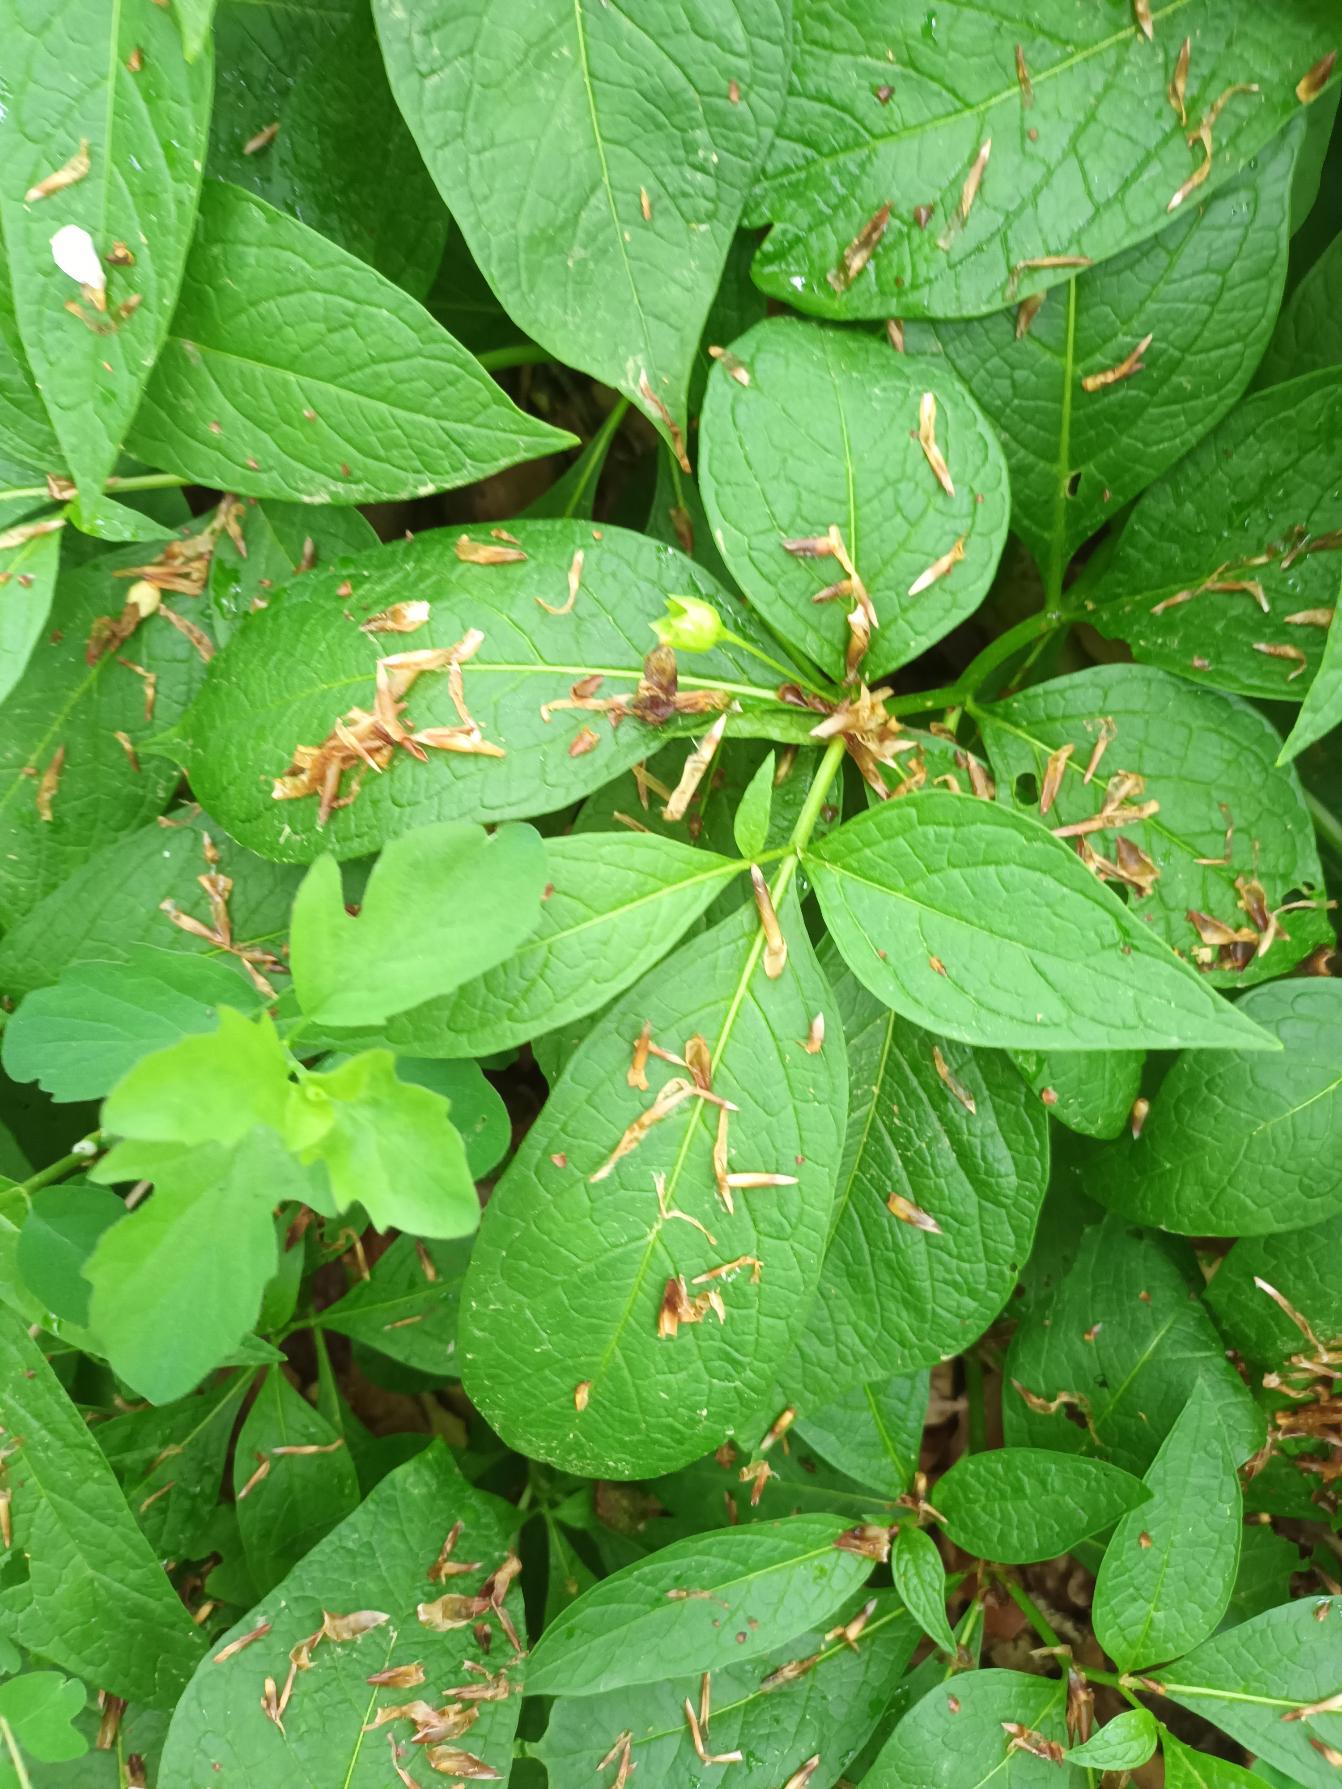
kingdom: Plantae
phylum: Tracheophyta
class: Magnoliopsida
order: Solanales
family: Solanaceae
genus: Scopolia
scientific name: Scopolia carniolica
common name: Skopolaminurt
